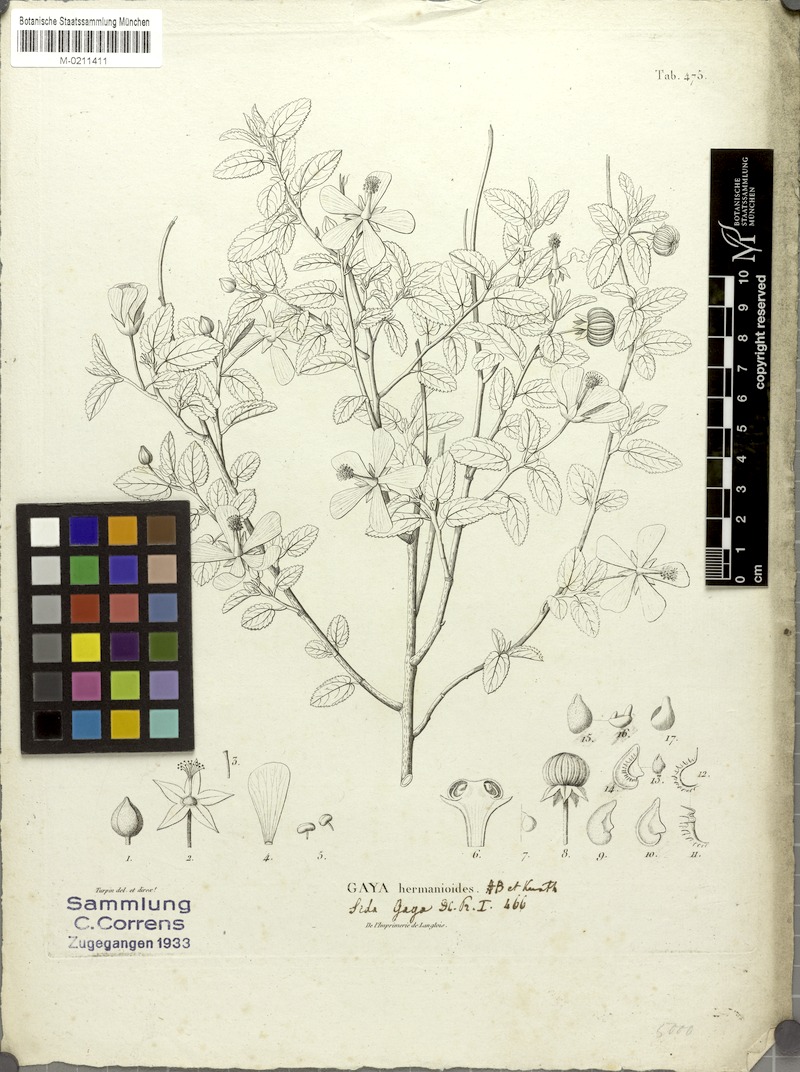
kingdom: Plantae
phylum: Tracheophyta
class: Magnoliopsida
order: Malvales
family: Malvaceae
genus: Gaya
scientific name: Gaya hermannioides
